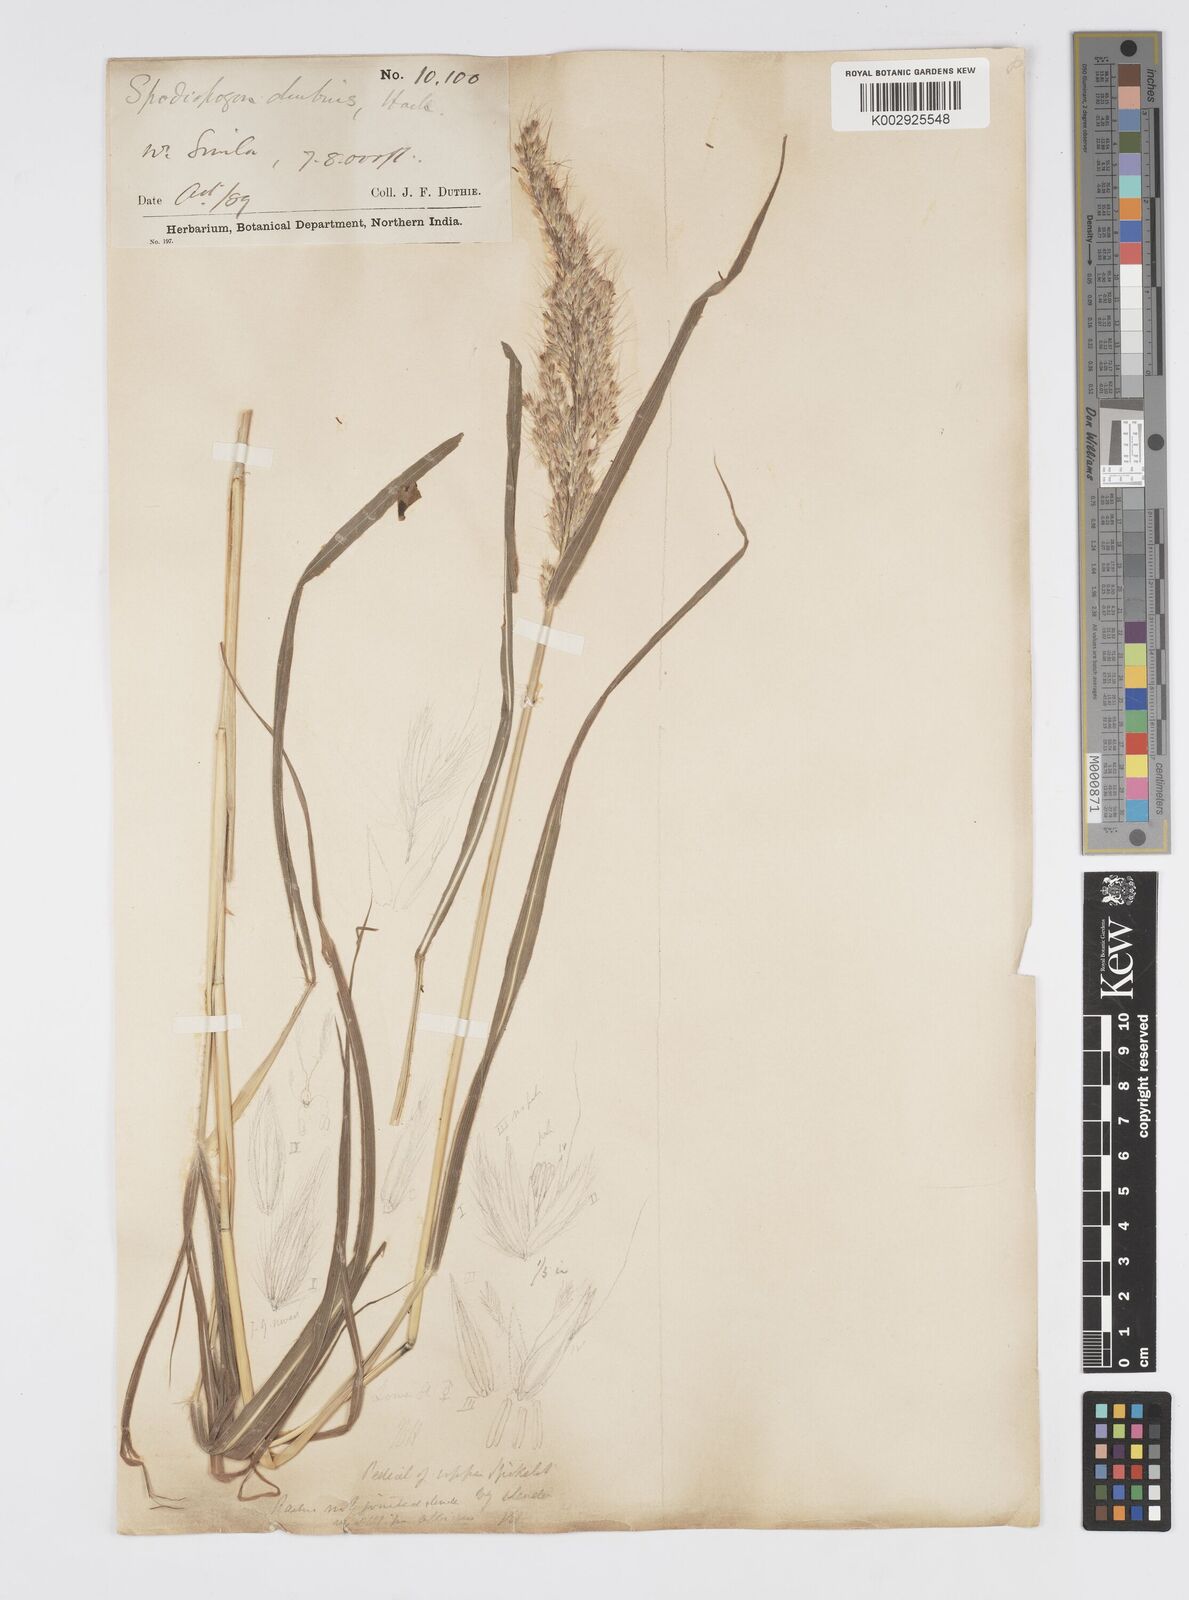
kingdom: Plantae
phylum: Tracheophyta
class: Liliopsida
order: Poales
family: Poaceae
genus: Spodiopogon
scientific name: Spodiopogon cotulifer
